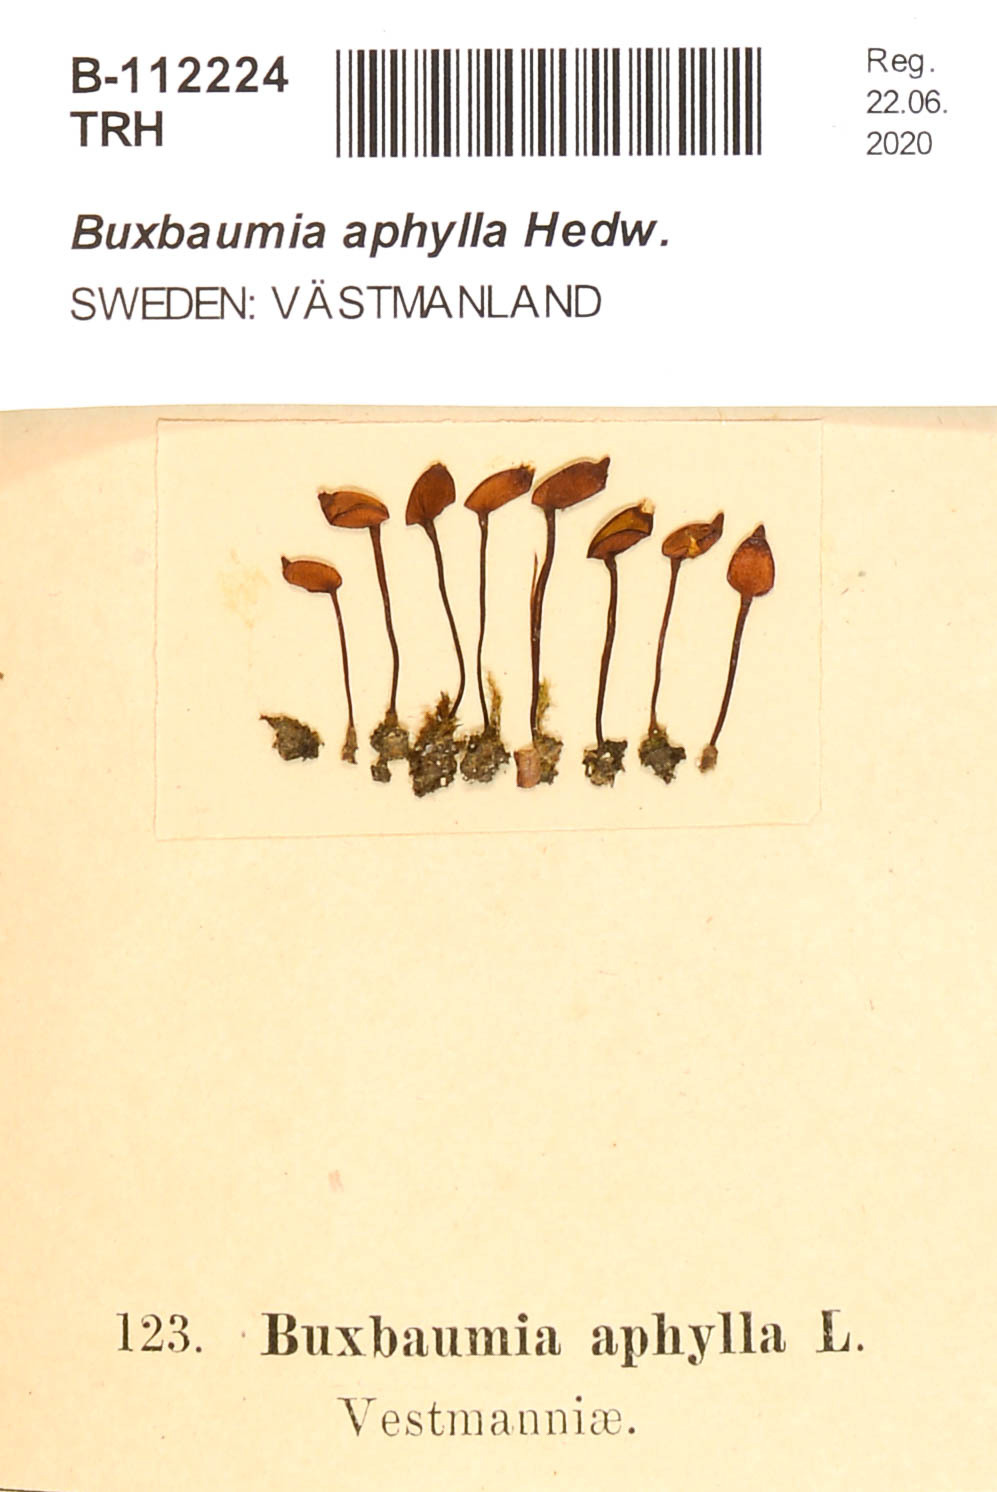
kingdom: Plantae
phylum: Bryophyta
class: Bryopsida
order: Buxbaumiales
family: Buxbaumiaceae
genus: Buxbaumia
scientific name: Buxbaumia aphylla
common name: Brown shield-moss
